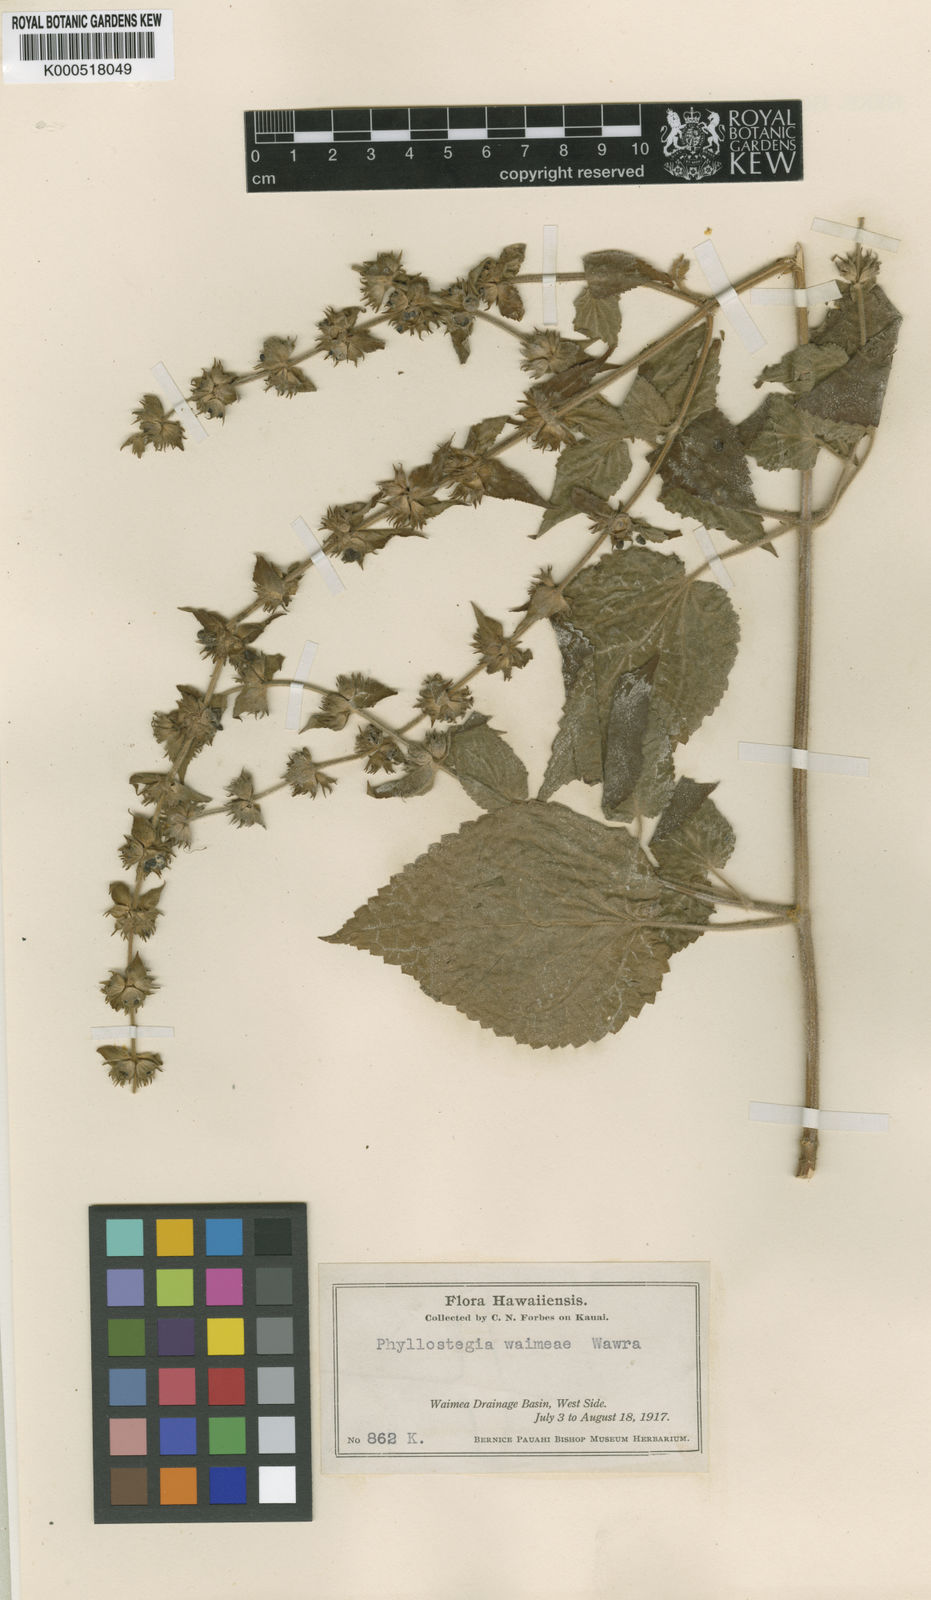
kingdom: Plantae
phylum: Tracheophyta
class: Magnoliopsida
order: Lamiales
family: Lamiaceae
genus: Phyllostegia
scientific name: Phyllostegia waimeae
